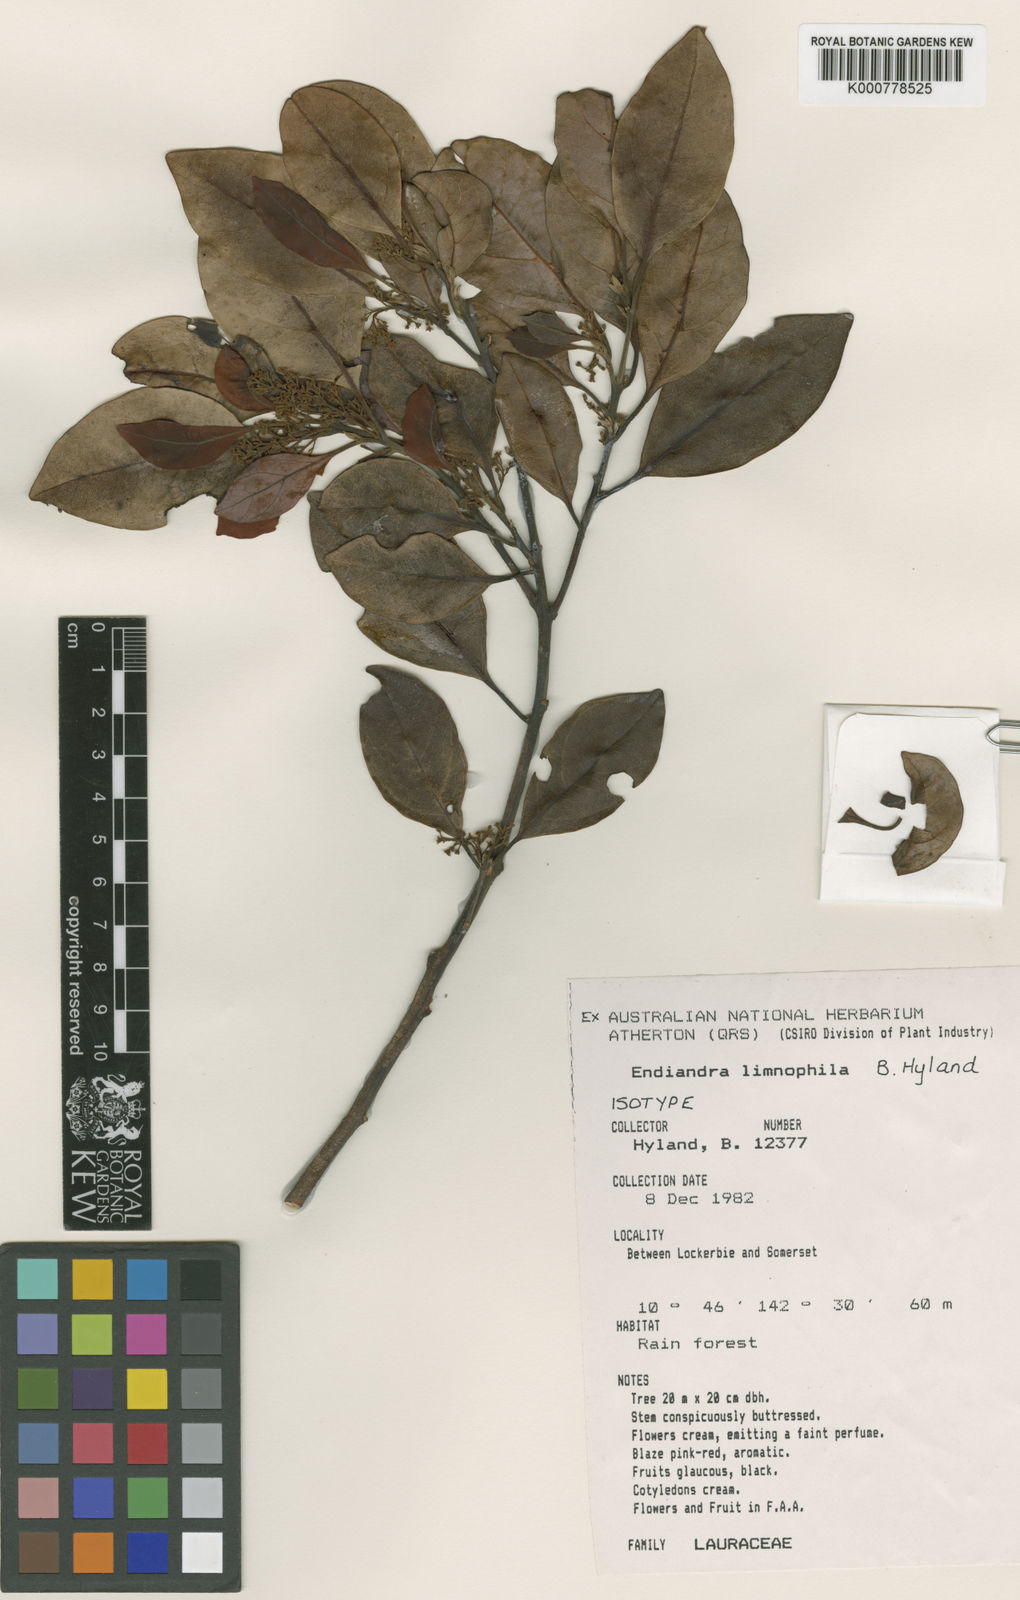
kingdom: Plantae
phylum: Tracheophyta
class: Magnoliopsida
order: Laurales
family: Lauraceae
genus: Endiandra
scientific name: Endiandra limnophila
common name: Native walnut
